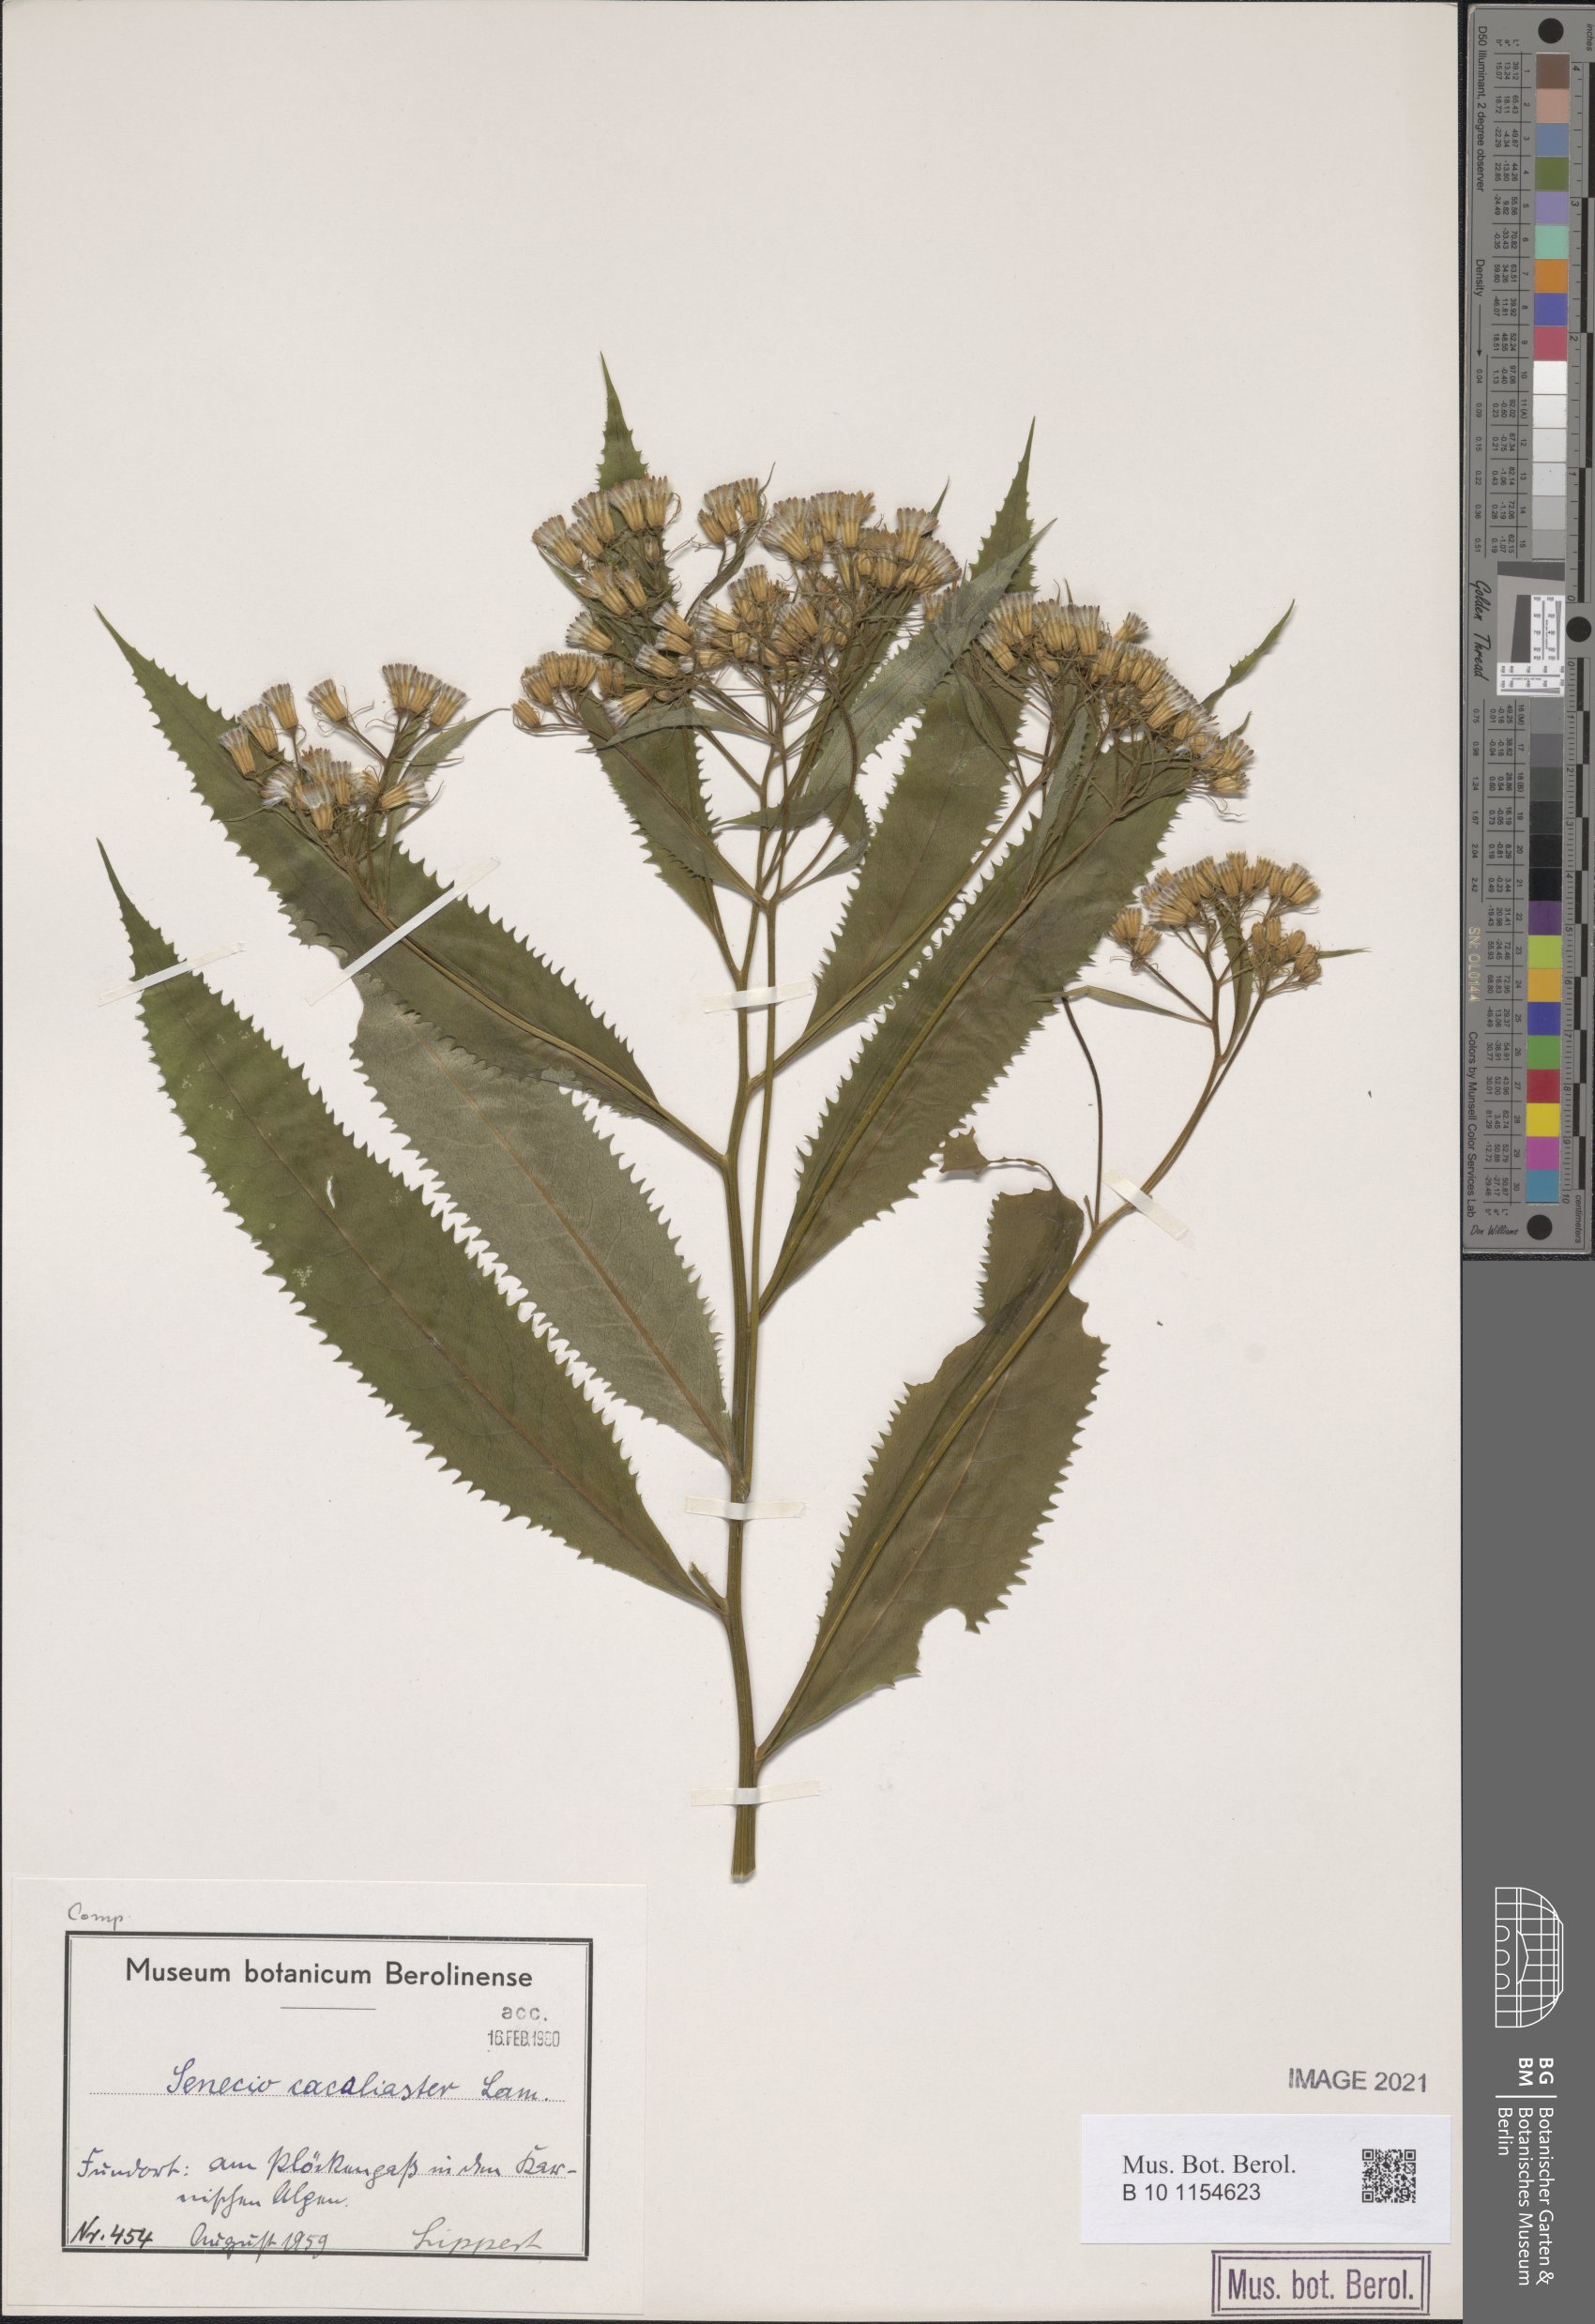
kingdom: Plantae
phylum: Tracheophyta
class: Magnoliopsida
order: Asterales
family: Asteraceae
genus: Senecio
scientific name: Senecio cacaliaster
